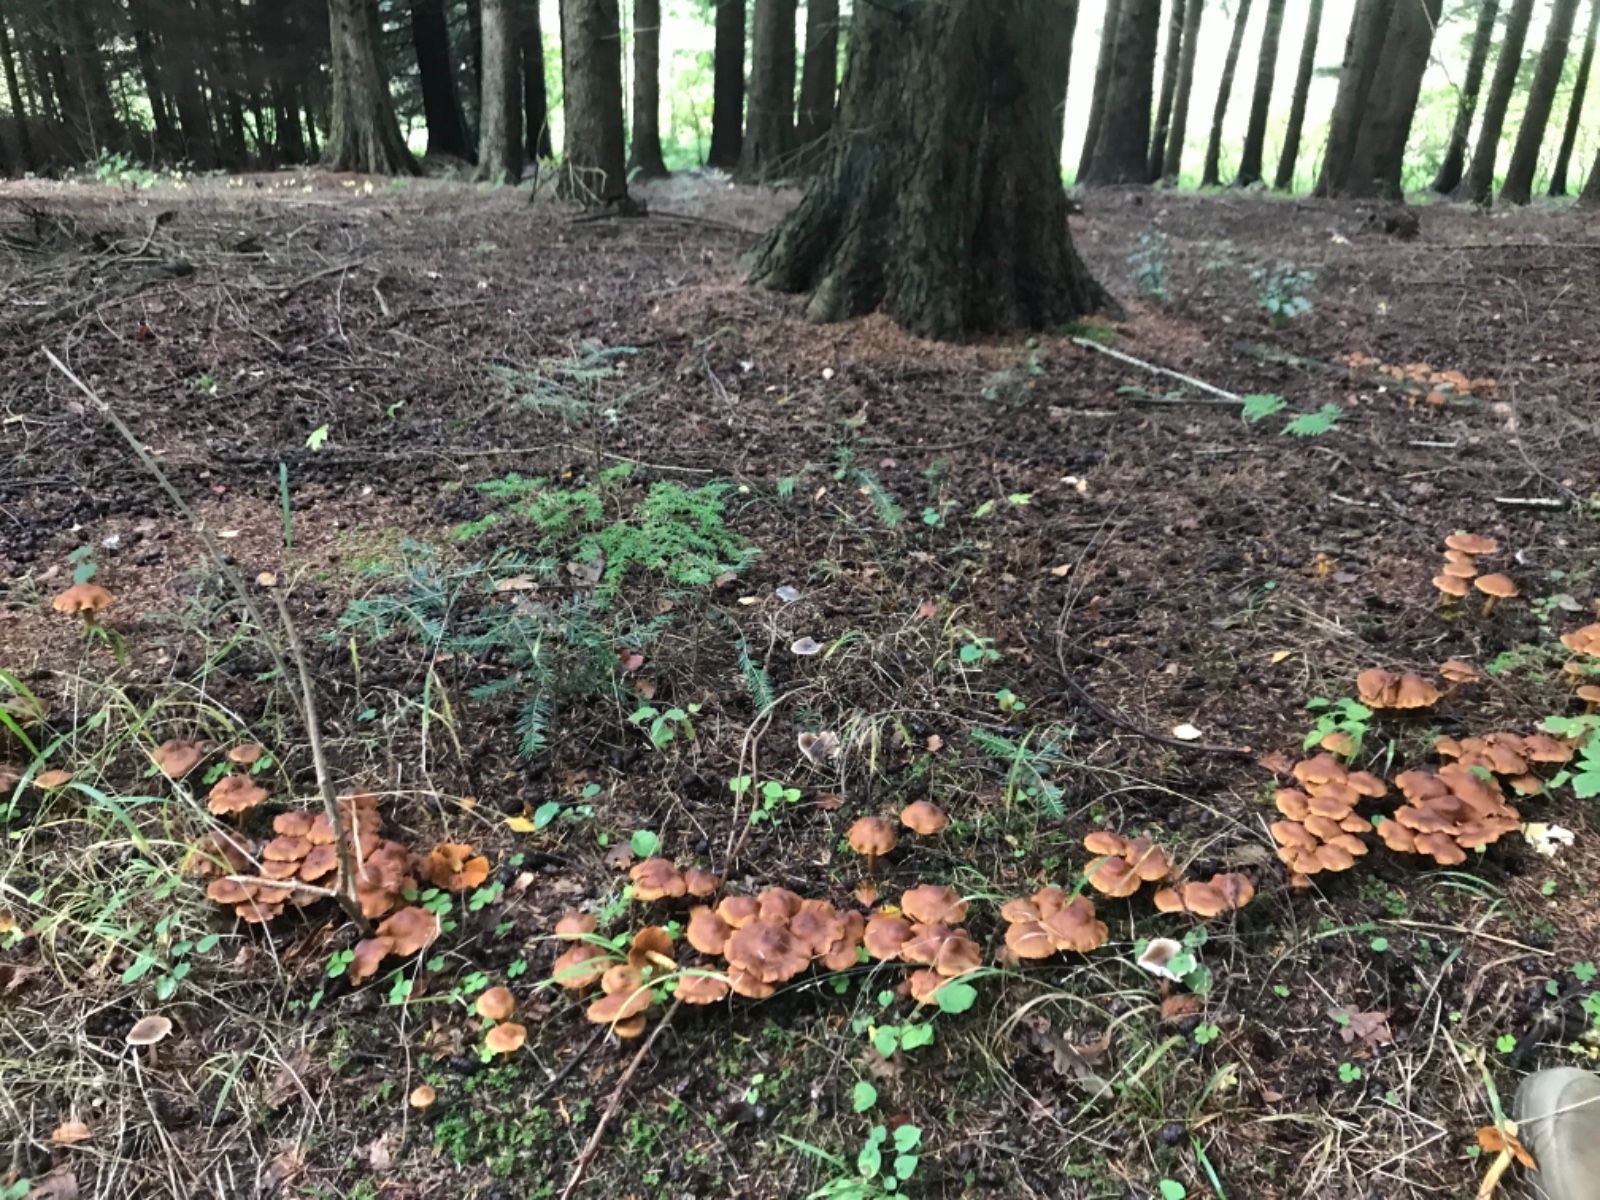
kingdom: Fungi
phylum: Basidiomycota
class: Agaricomycetes
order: Agaricales
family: Cortinariaceae
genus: Cortinarius
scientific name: Cortinarius
